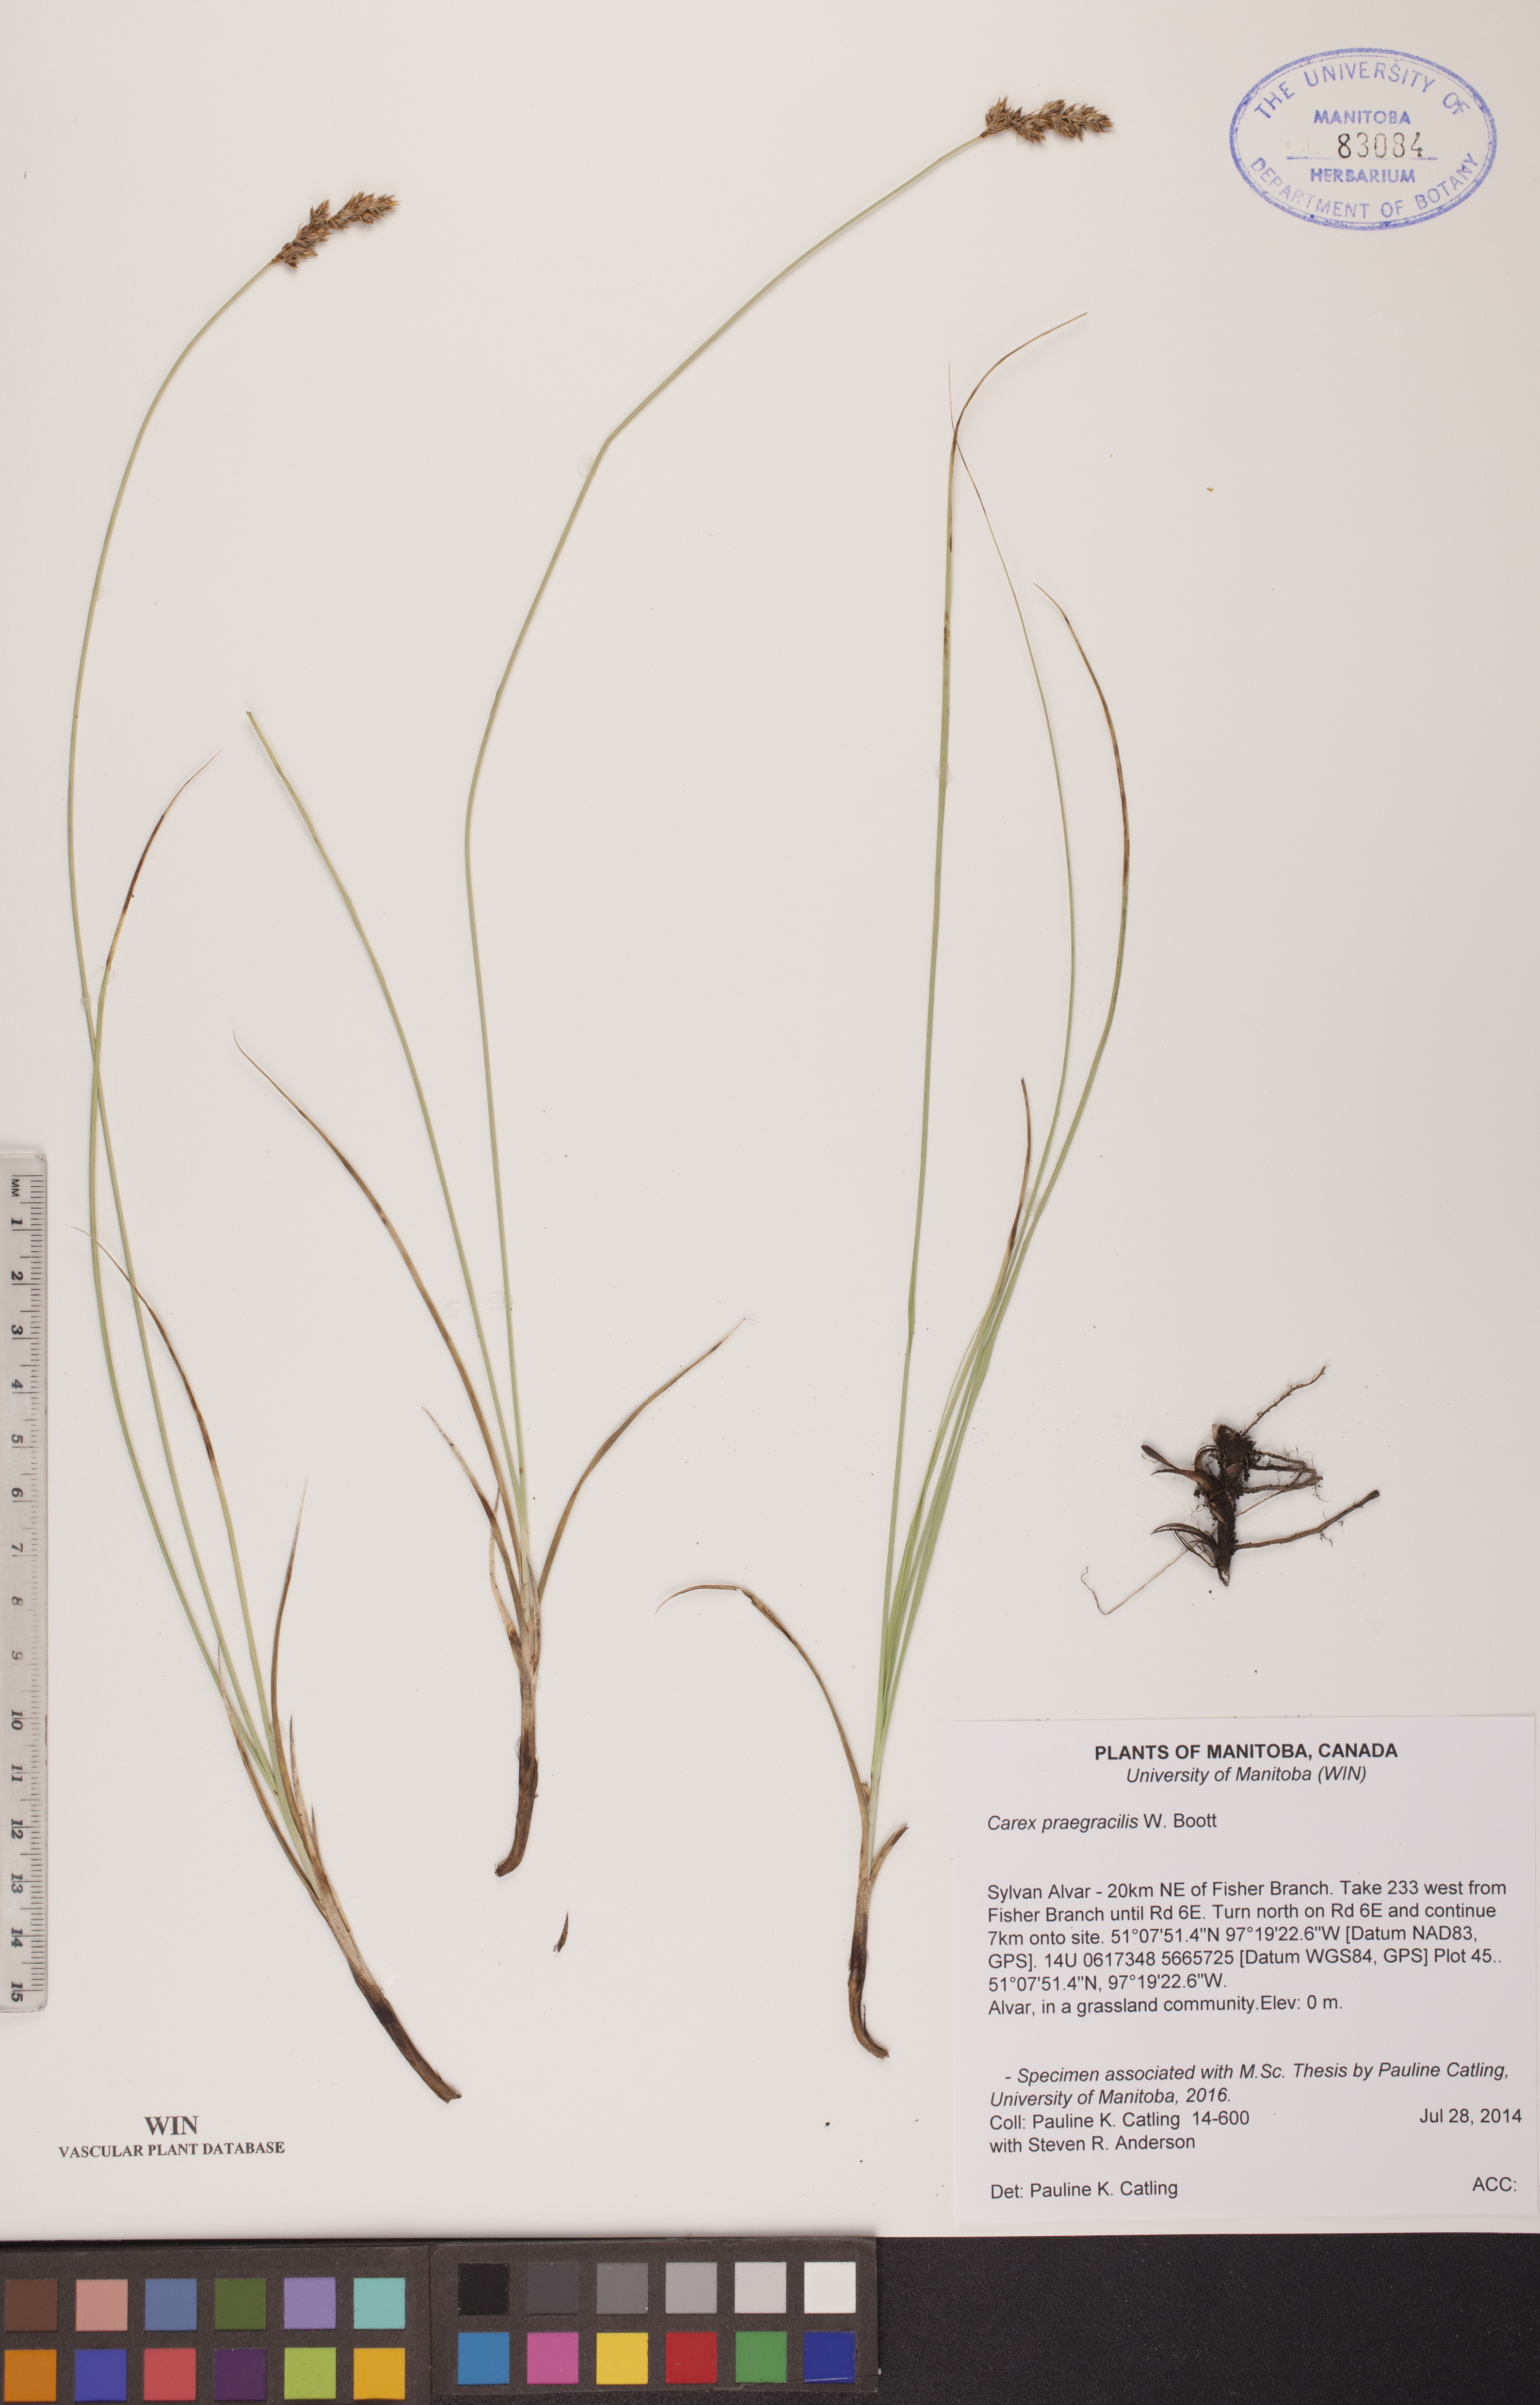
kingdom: Plantae
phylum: Tracheophyta
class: Liliopsida
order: Poales
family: Cyperaceae
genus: Carex
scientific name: Carex praegracilis
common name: Black creeper sedge
